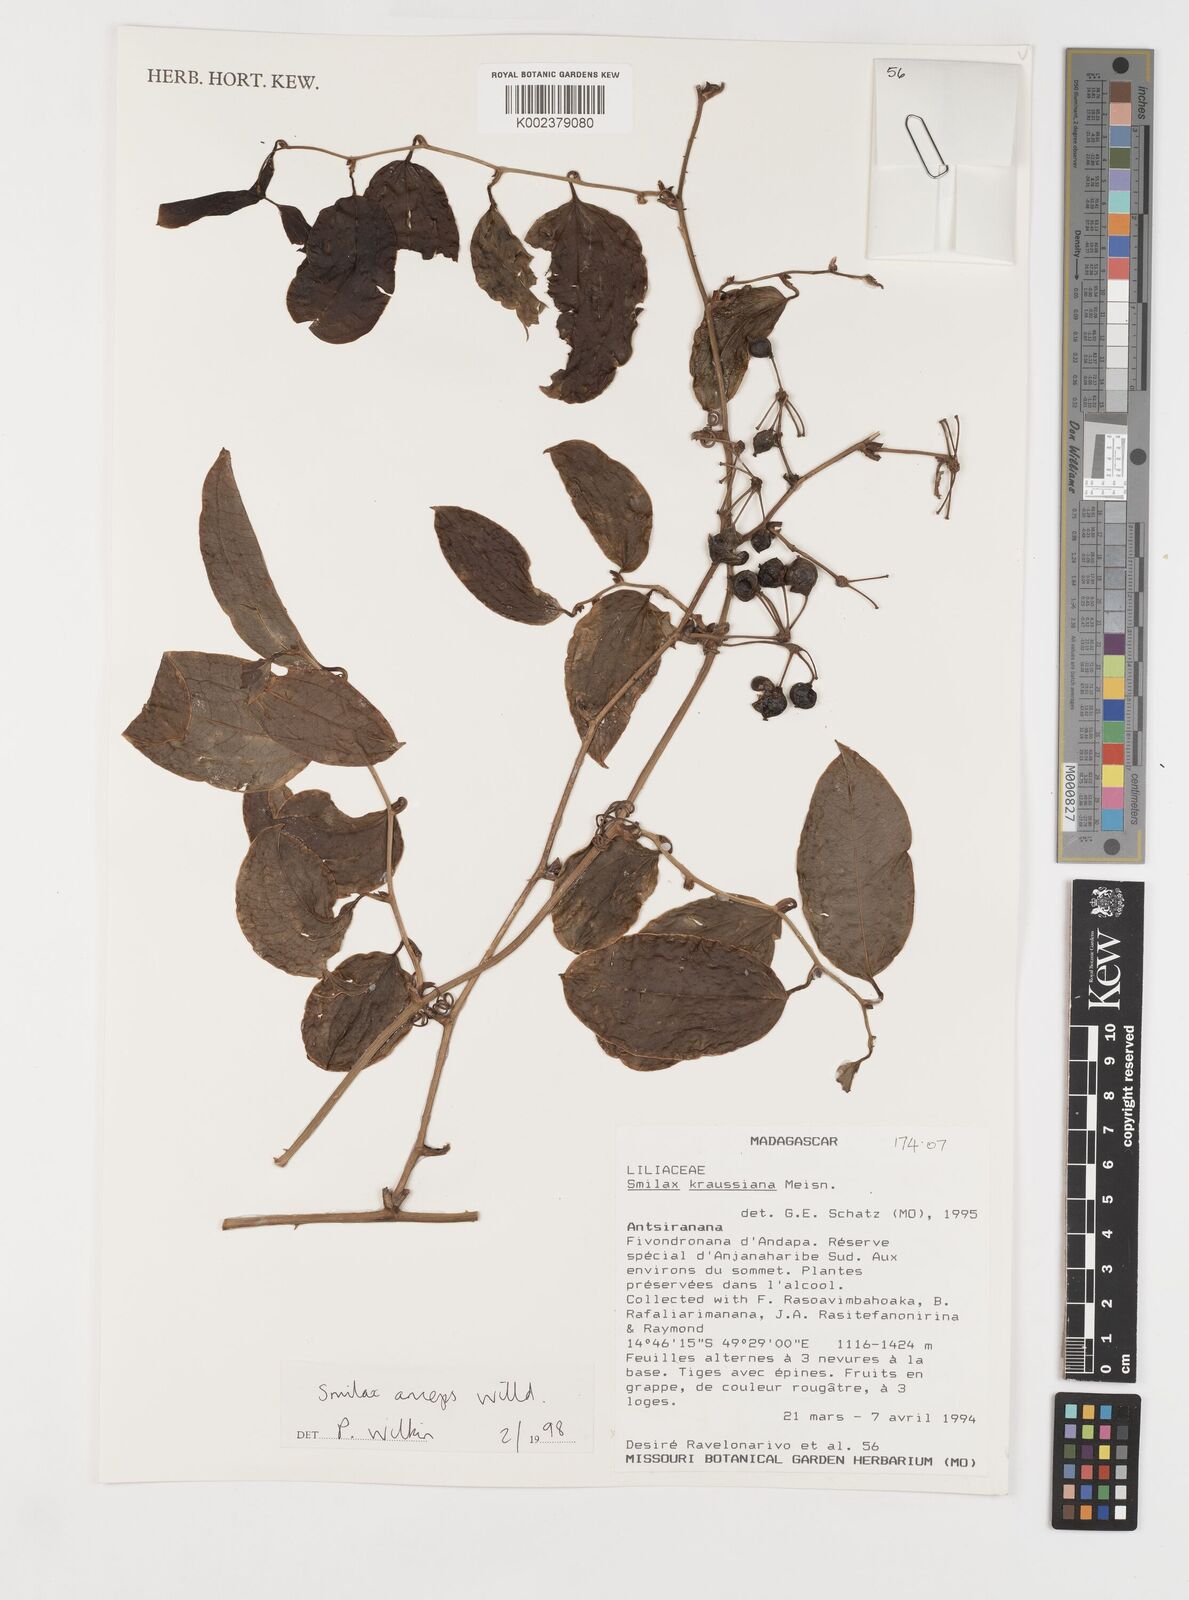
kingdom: Plantae
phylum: Tracheophyta
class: Liliopsida
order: Liliales
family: Smilacaceae
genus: Smilax
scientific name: Smilax anceps
